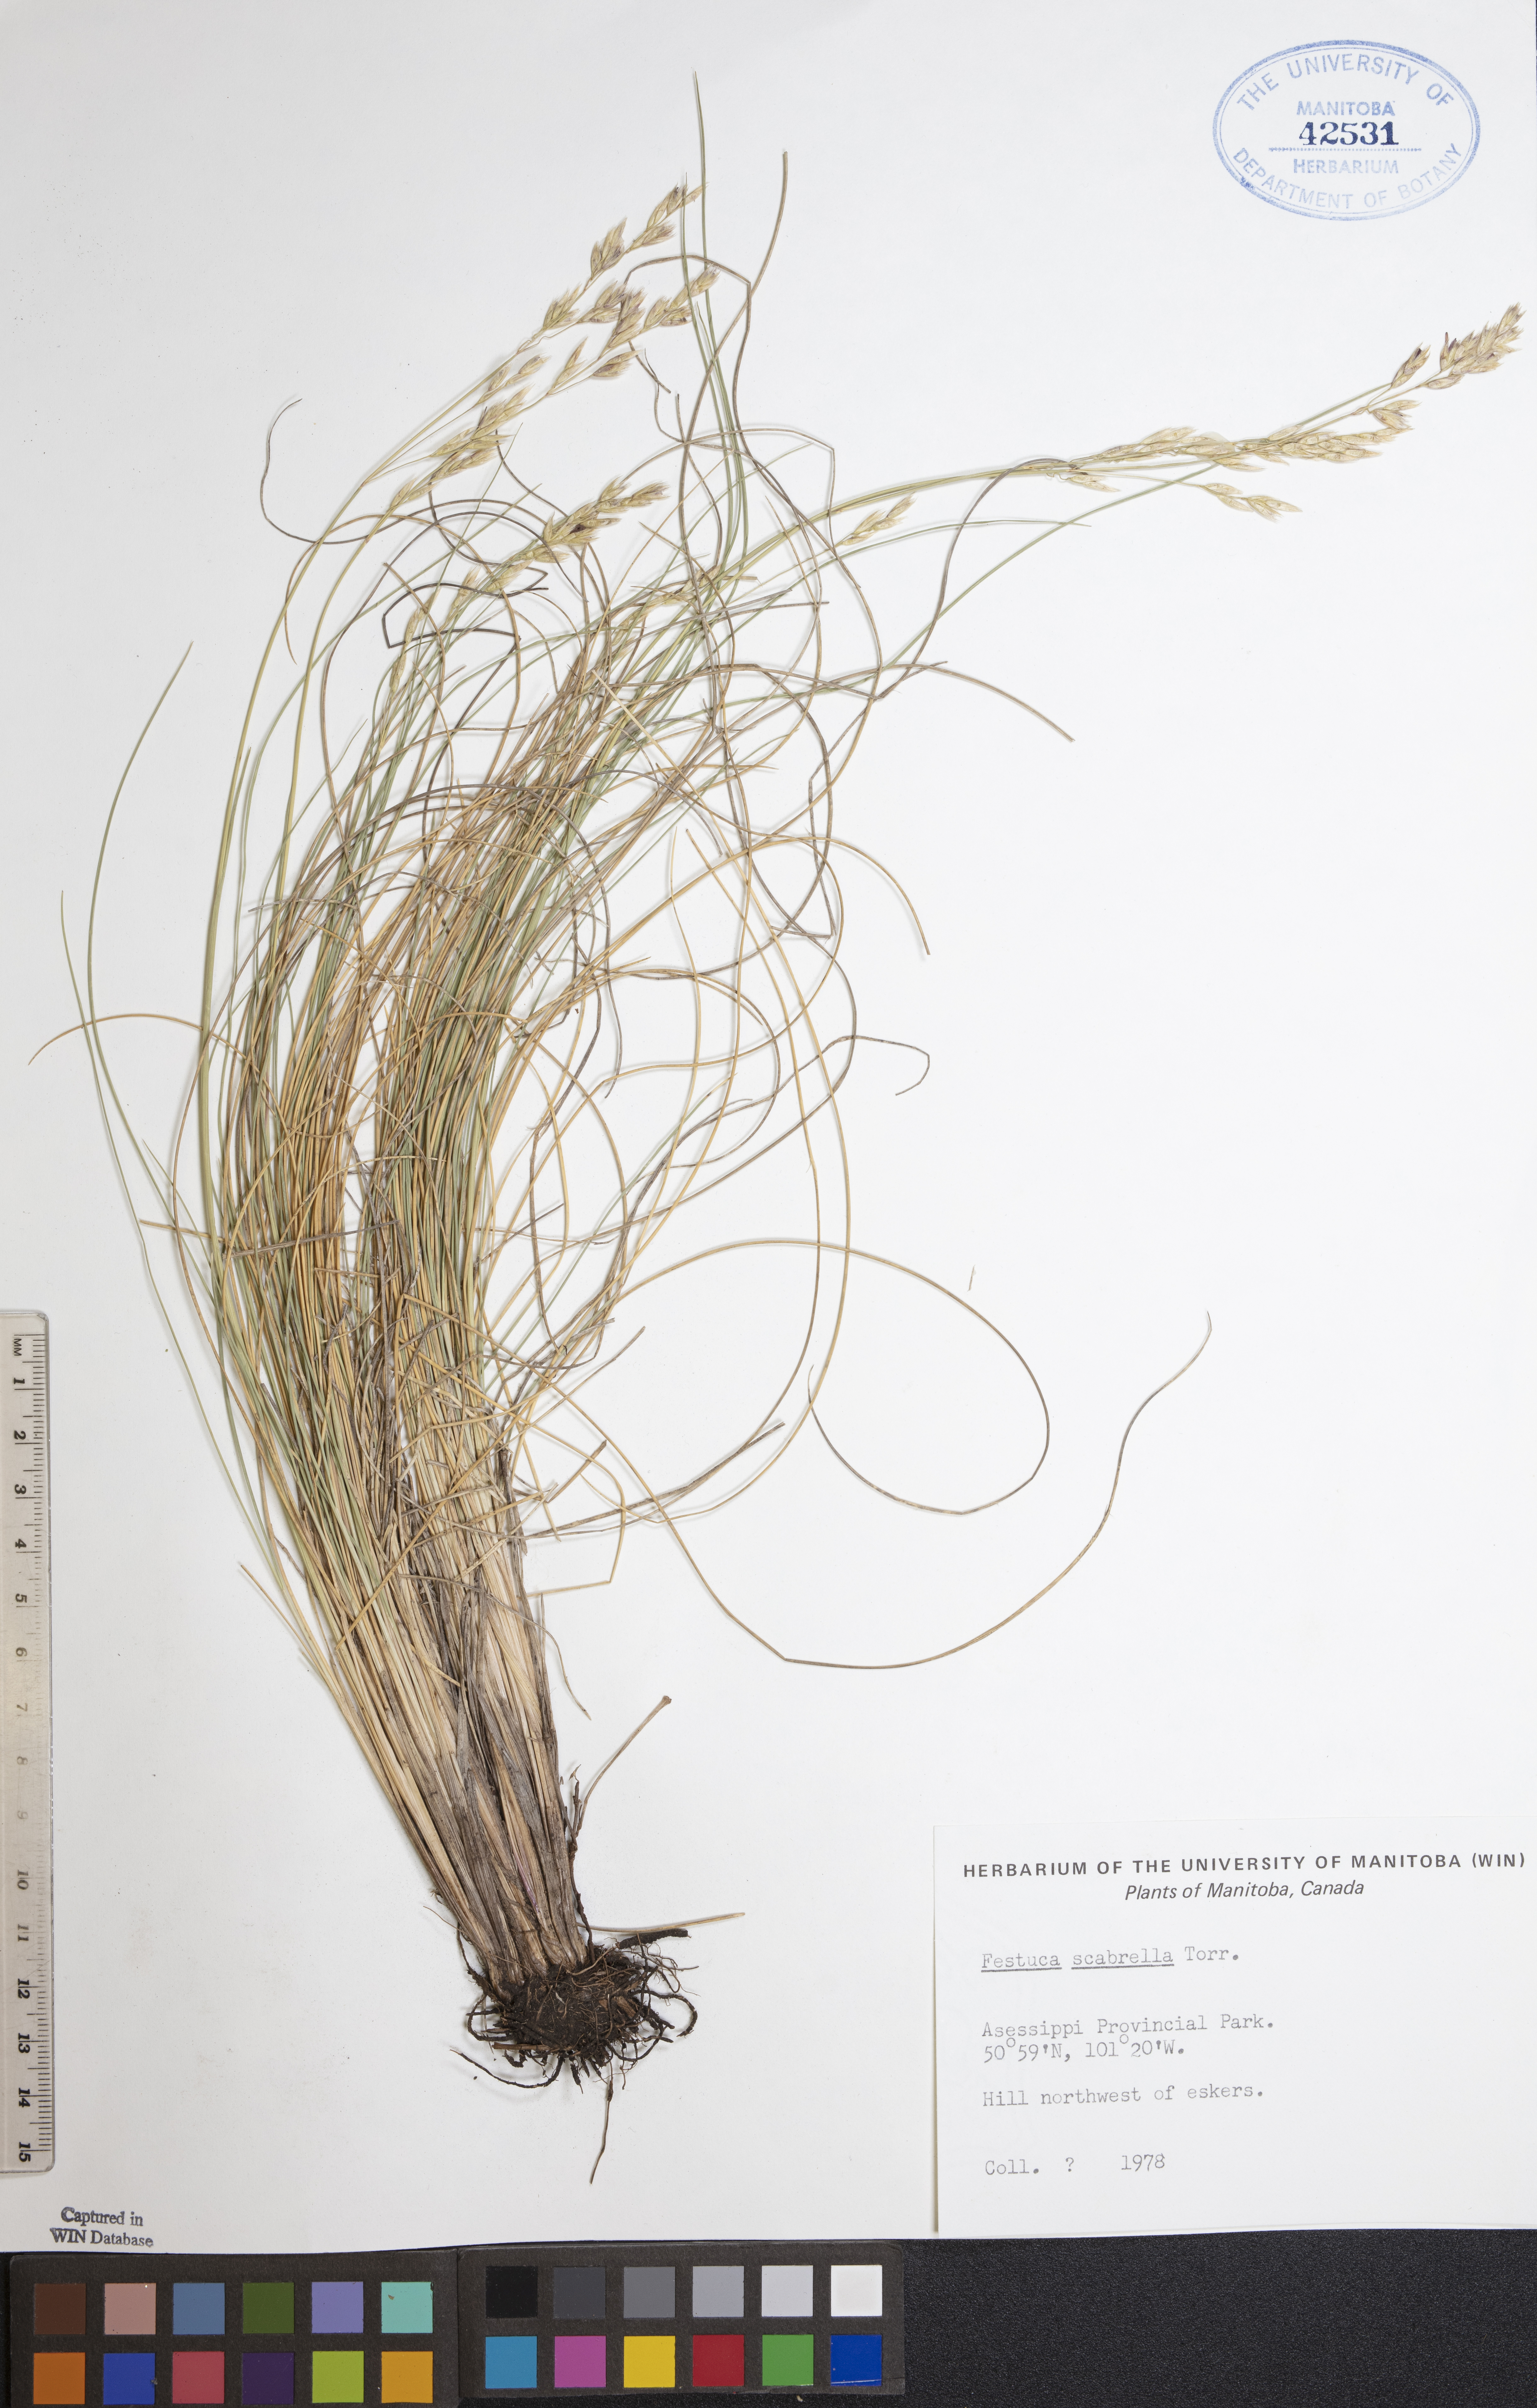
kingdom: Plantae
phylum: Tracheophyta
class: Liliopsida
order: Poales
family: Poaceae
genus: Festuca
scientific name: Festuca altaica
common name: Northern rough fescue
